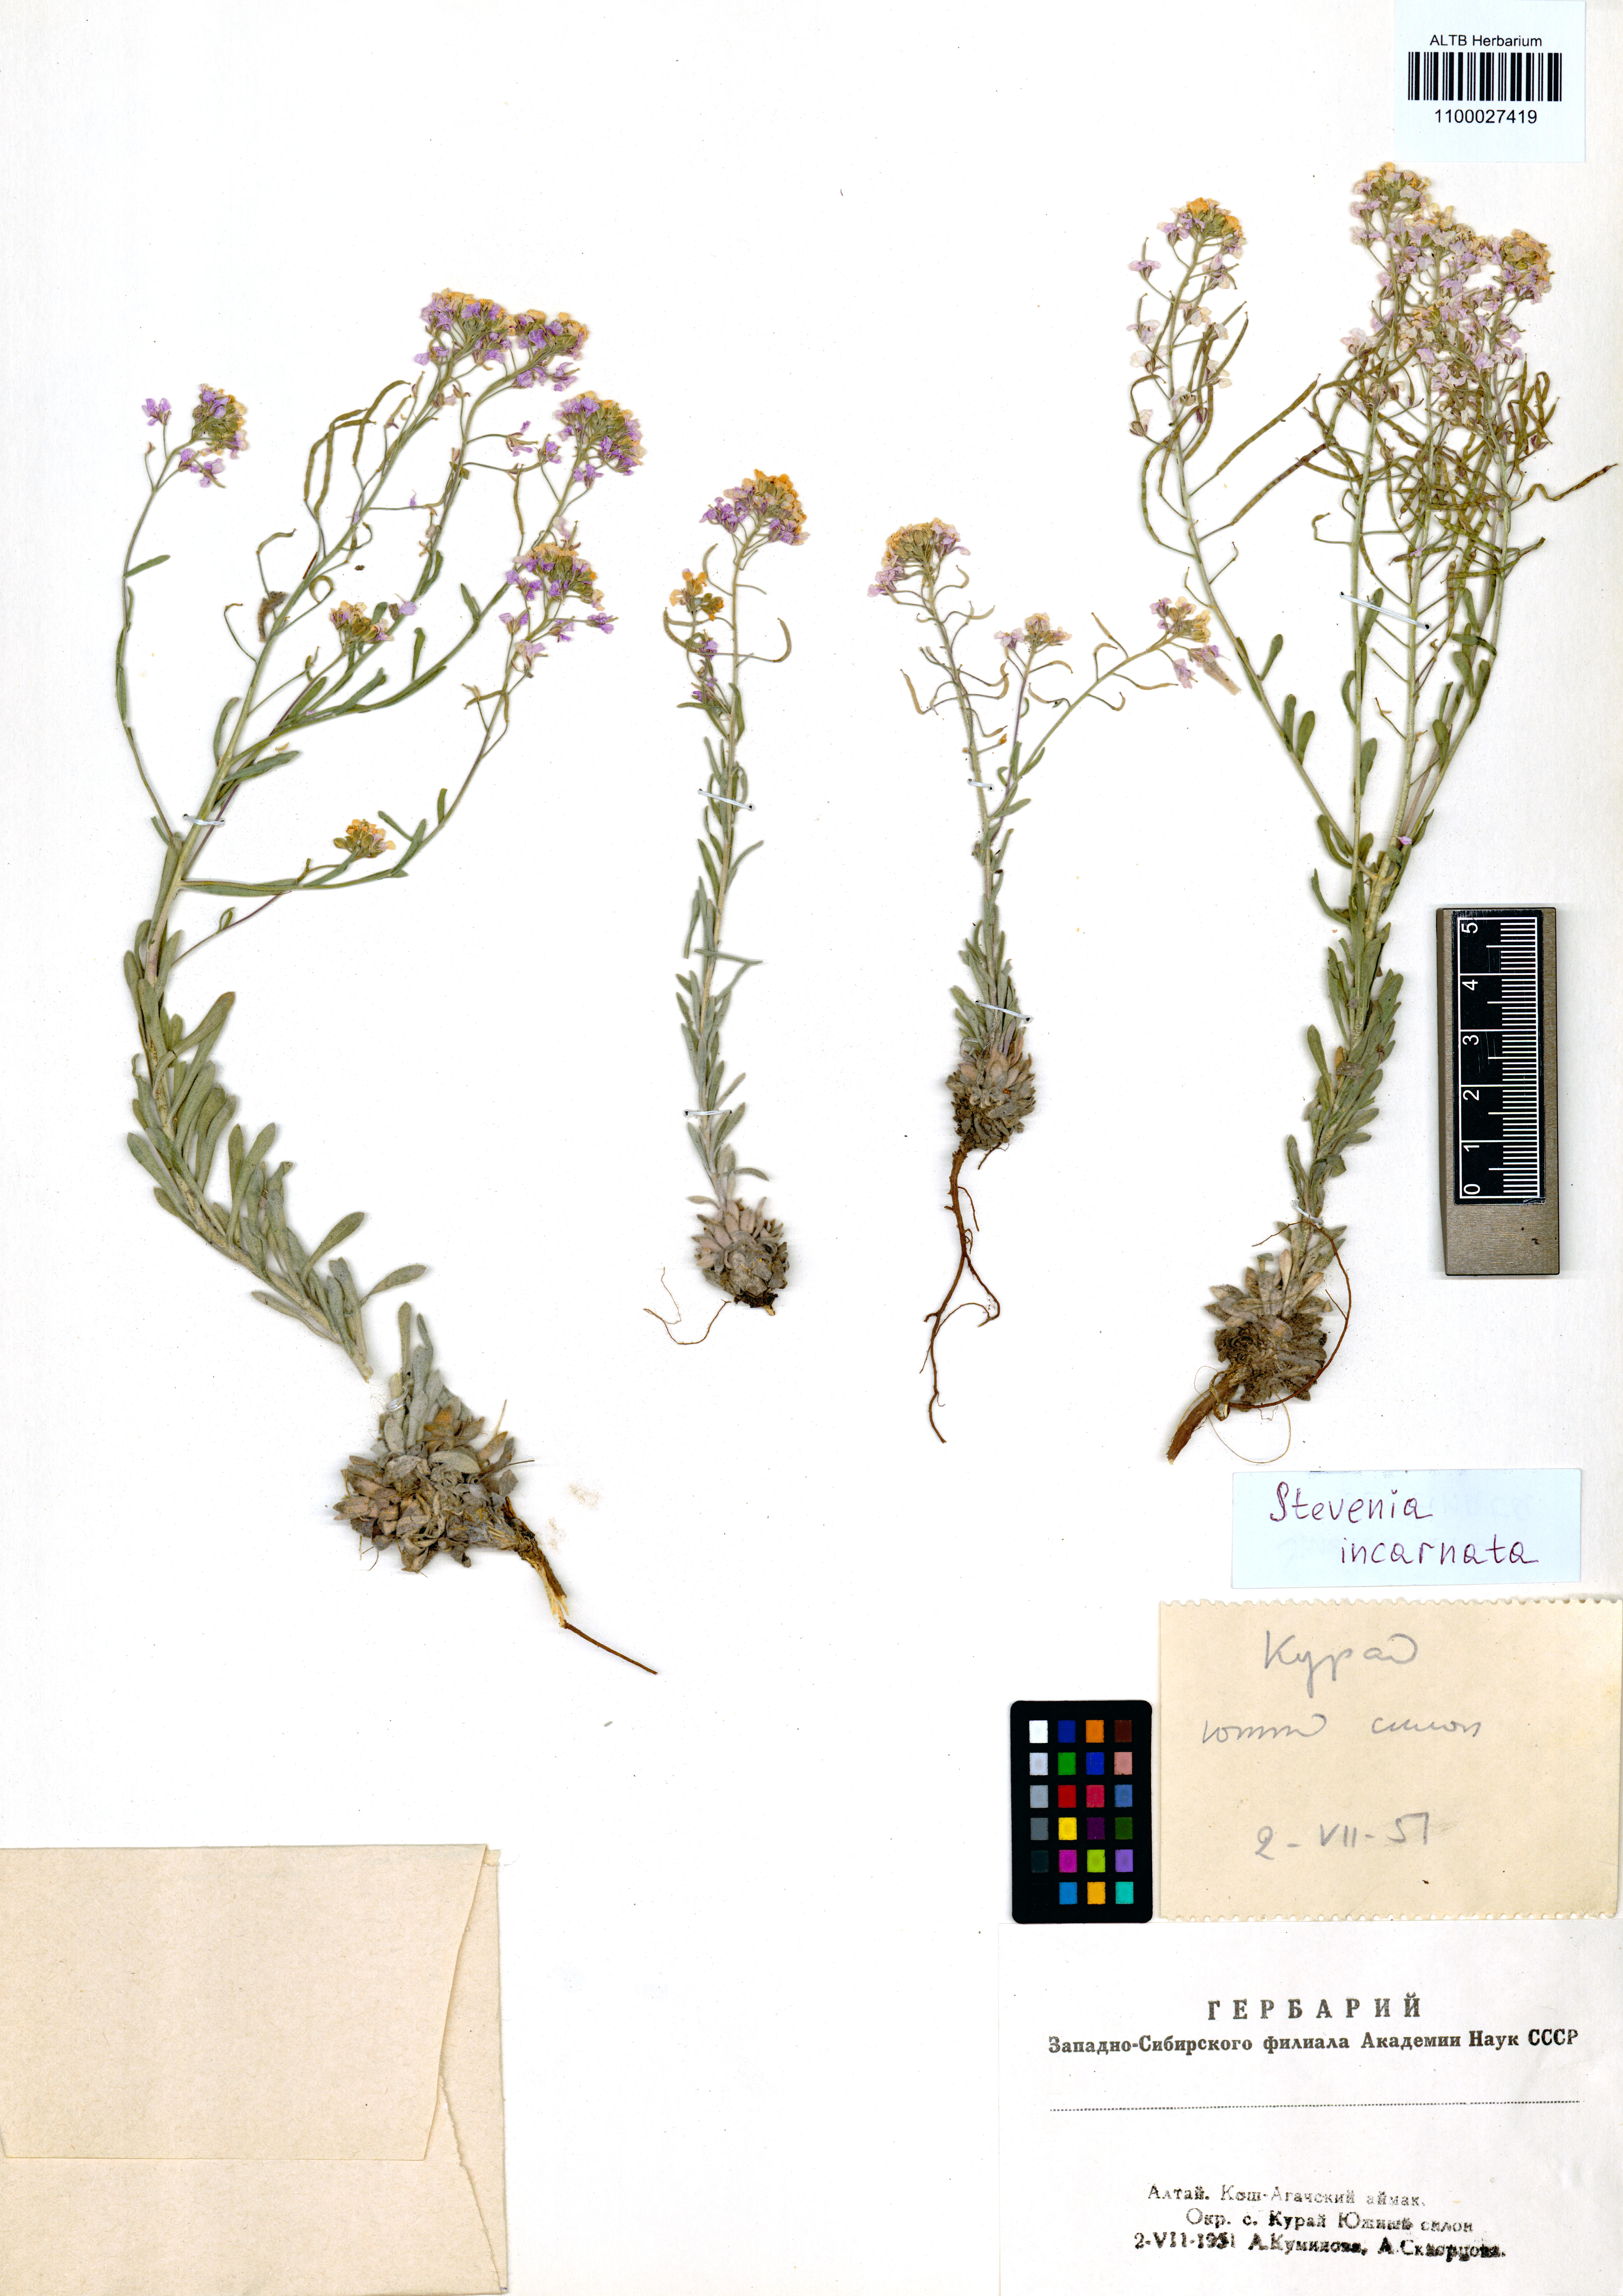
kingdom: Plantae
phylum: Tracheophyta
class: Magnoliopsida
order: Brassicales
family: Brassicaceae
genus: Stevenia
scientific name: Stevenia incarnata
